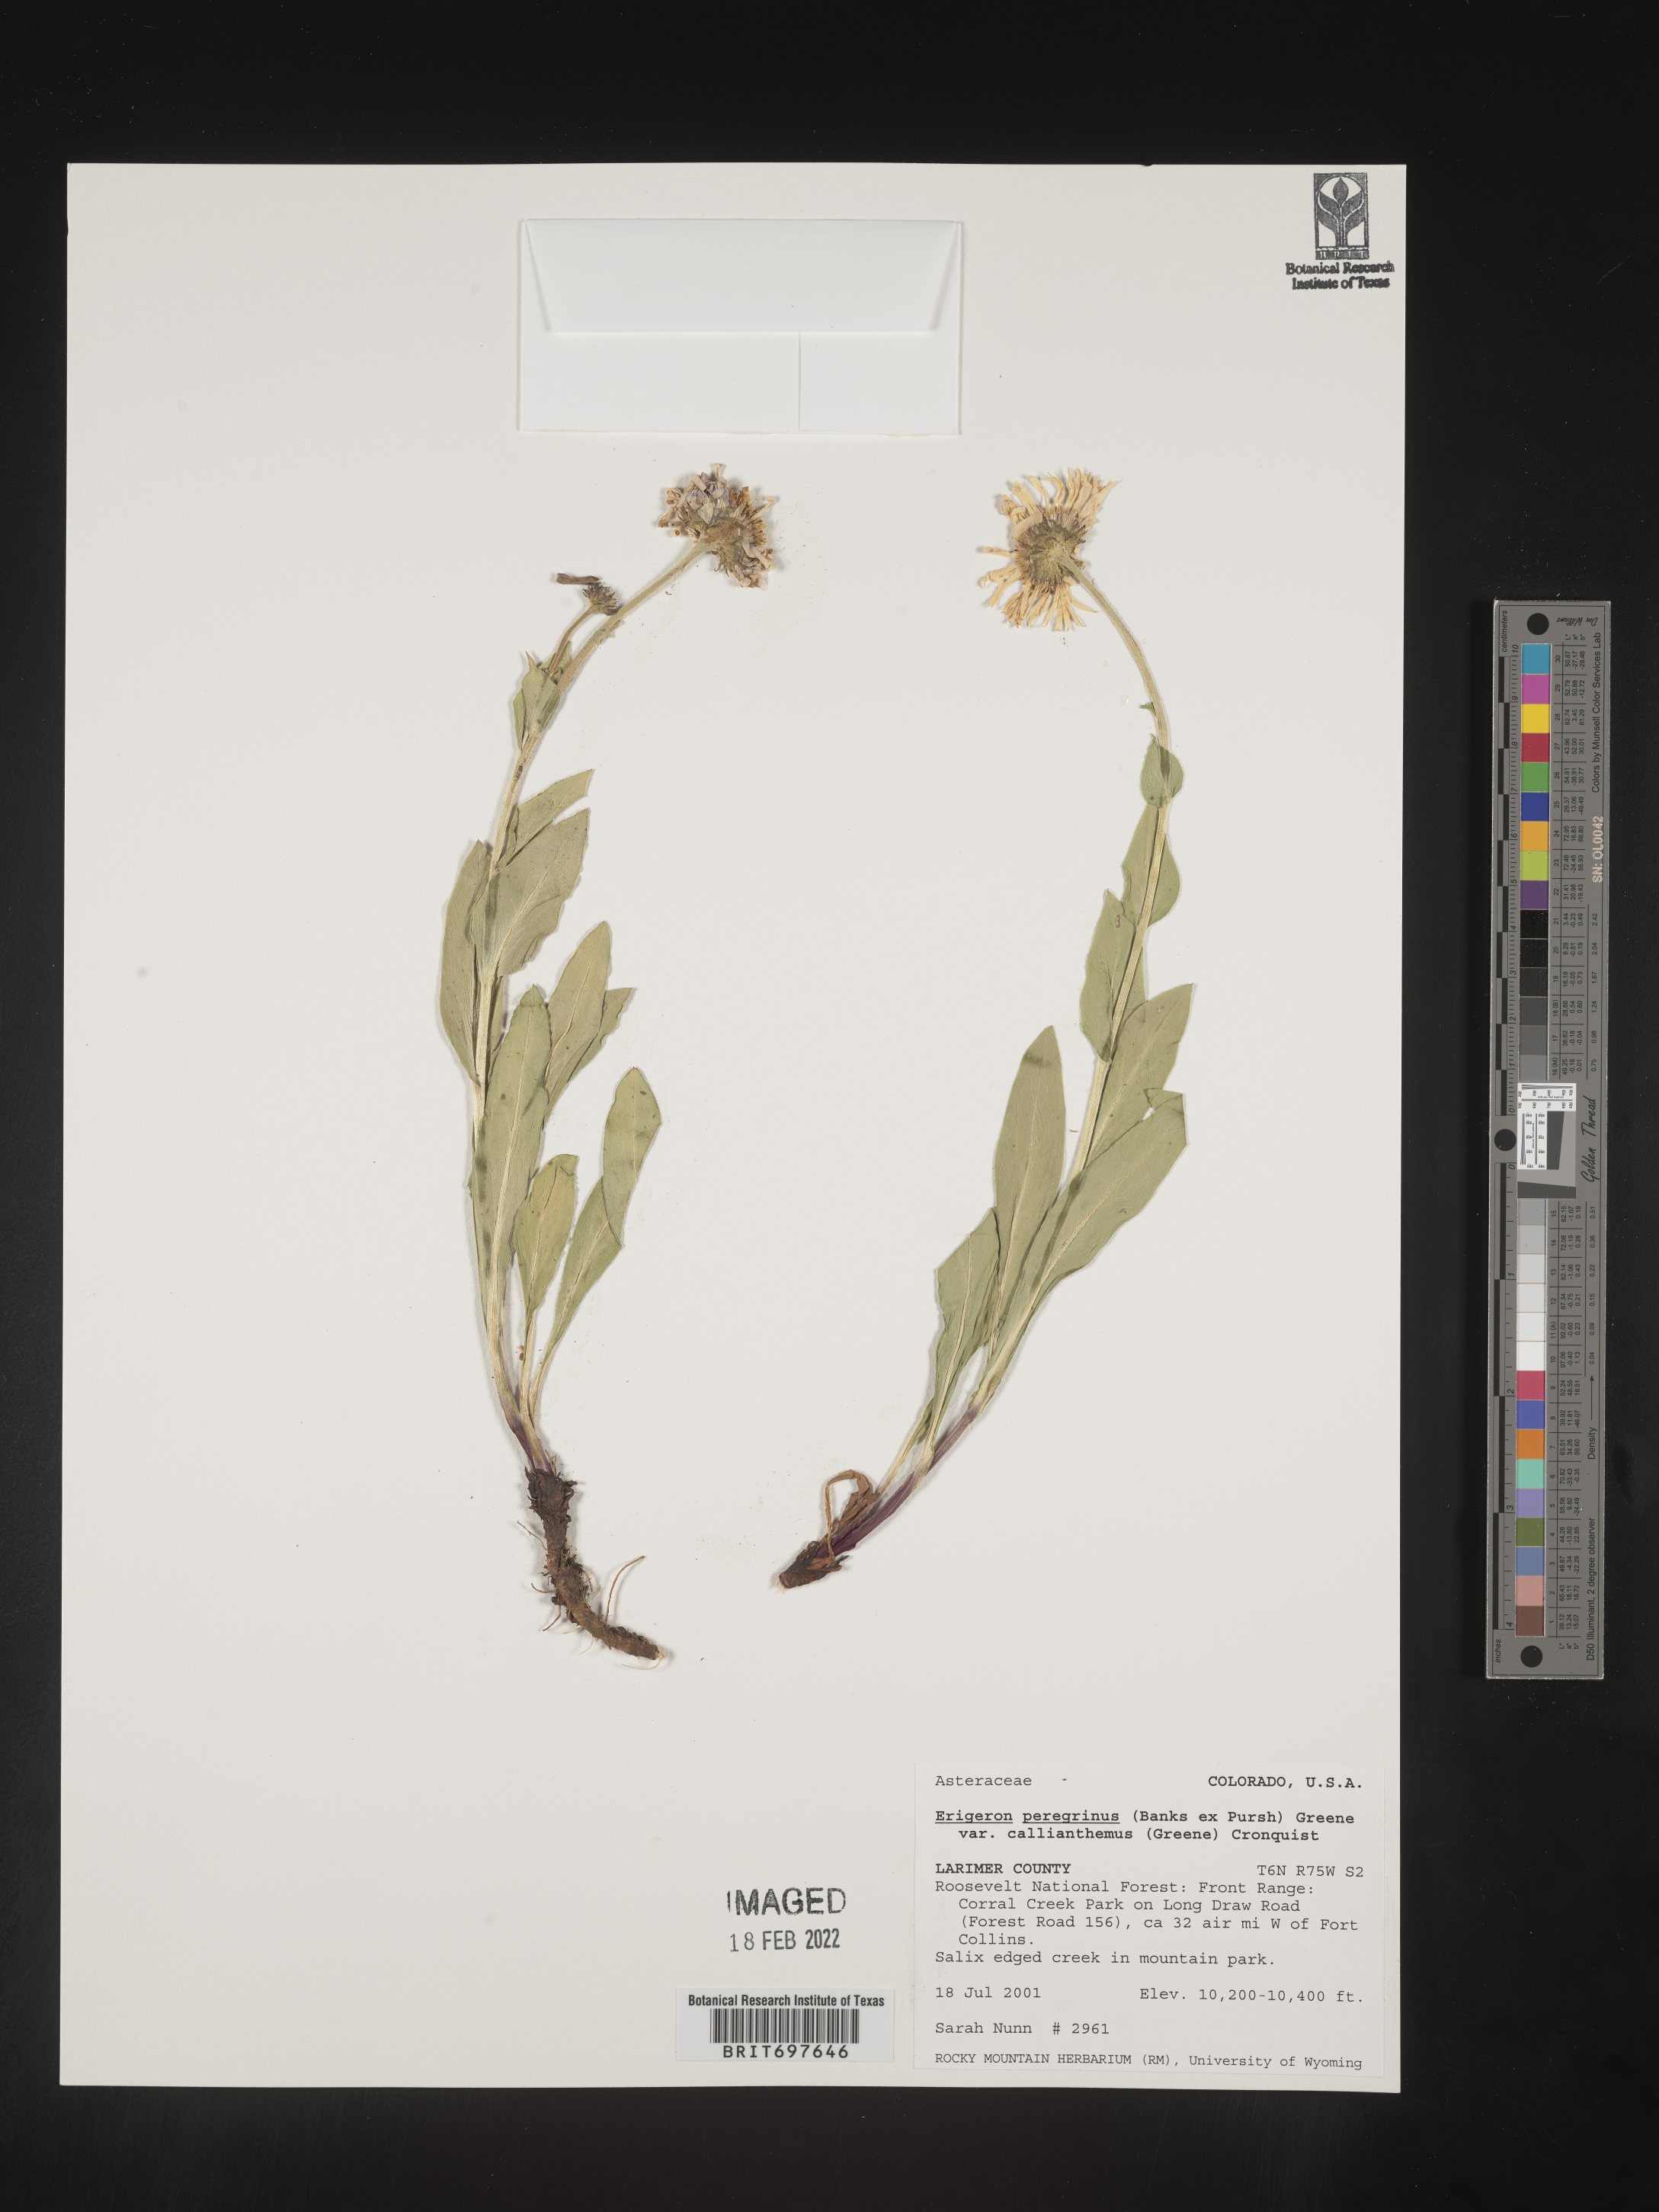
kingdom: Plantae
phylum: Tracheophyta
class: Magnoliopsida
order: Asterales
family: Asteraceae
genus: Erigeron
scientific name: Erigeron peregrinus
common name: Peregrine fleabane
